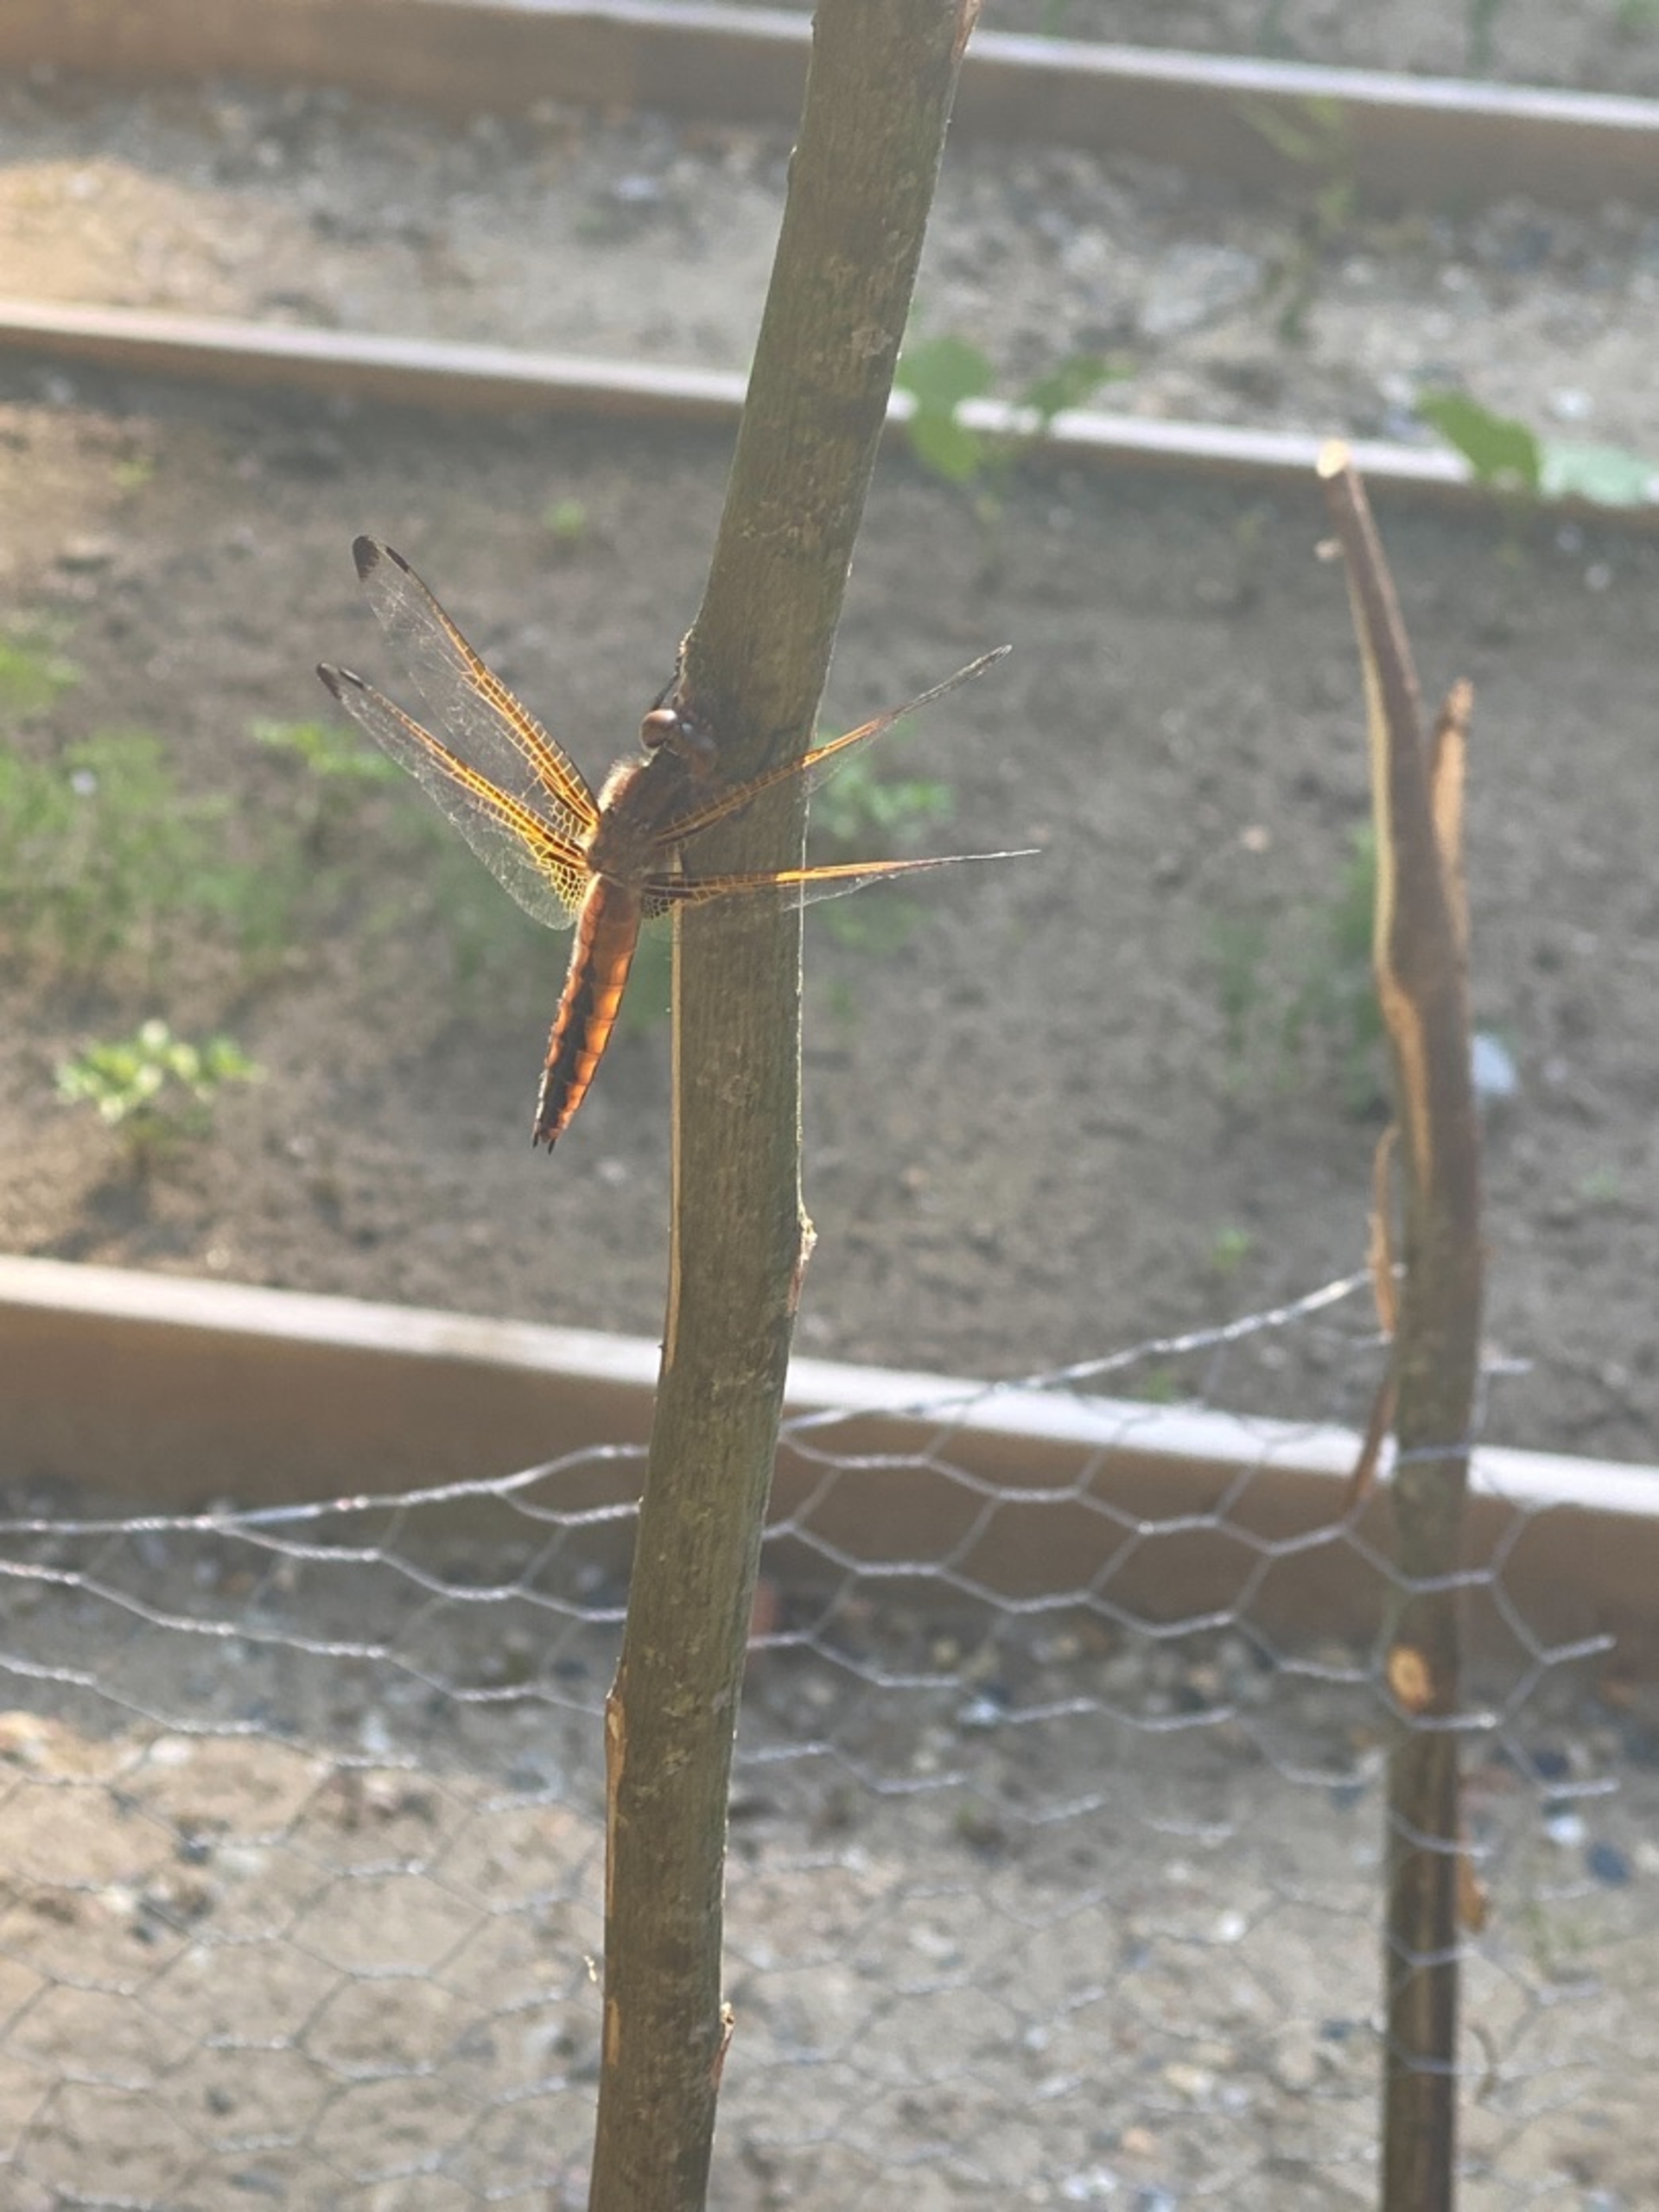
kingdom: Animalia
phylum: Arthropoda
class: Insecta
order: Odonata
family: Libellulidae
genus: Libellula
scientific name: Libellula fulva
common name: Spidsplettet libel
